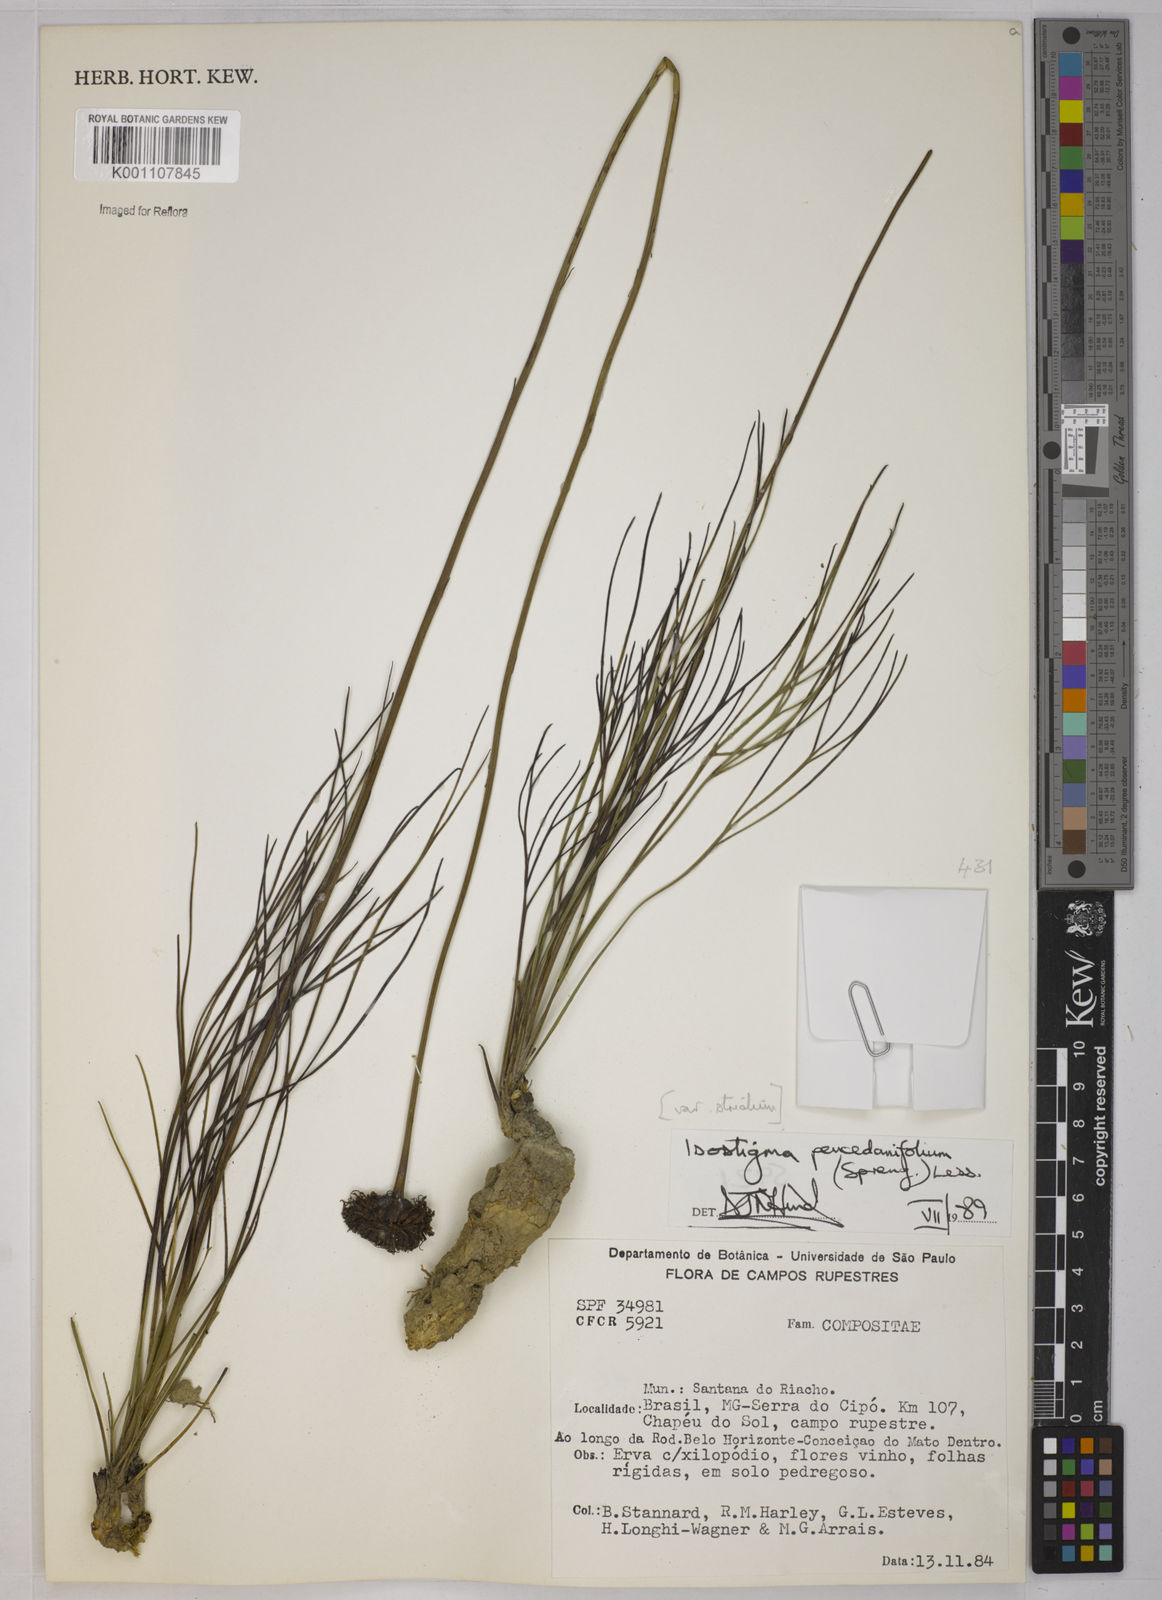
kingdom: Plantae
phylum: Tracheophyta
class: Magnoliopsida
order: Asterales
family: Asteraceae
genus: Isostigma
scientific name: Isostigma
